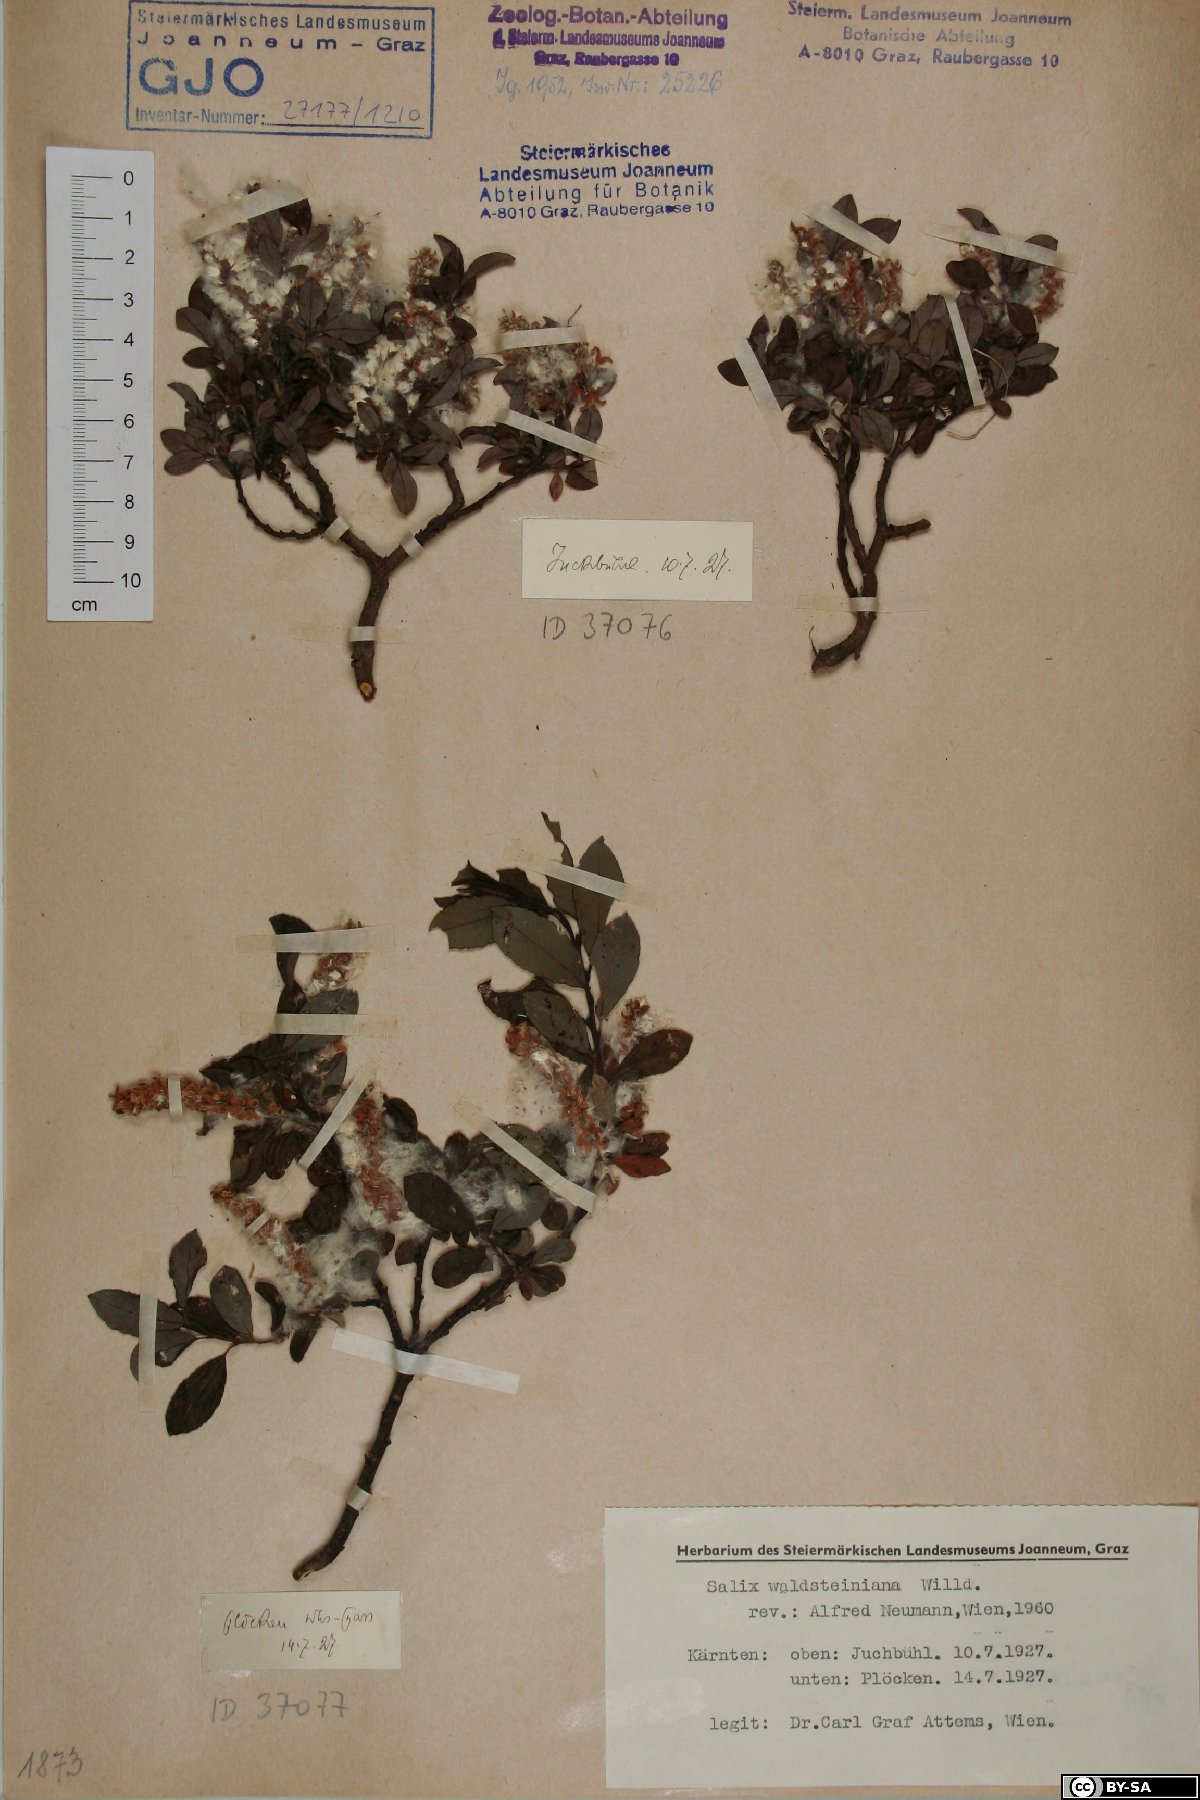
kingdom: Plantae
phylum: Tracheophyta
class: Magnoliopsida
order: Malpighiales
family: Salicaceae
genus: Salix
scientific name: Salix waldsteiniana
